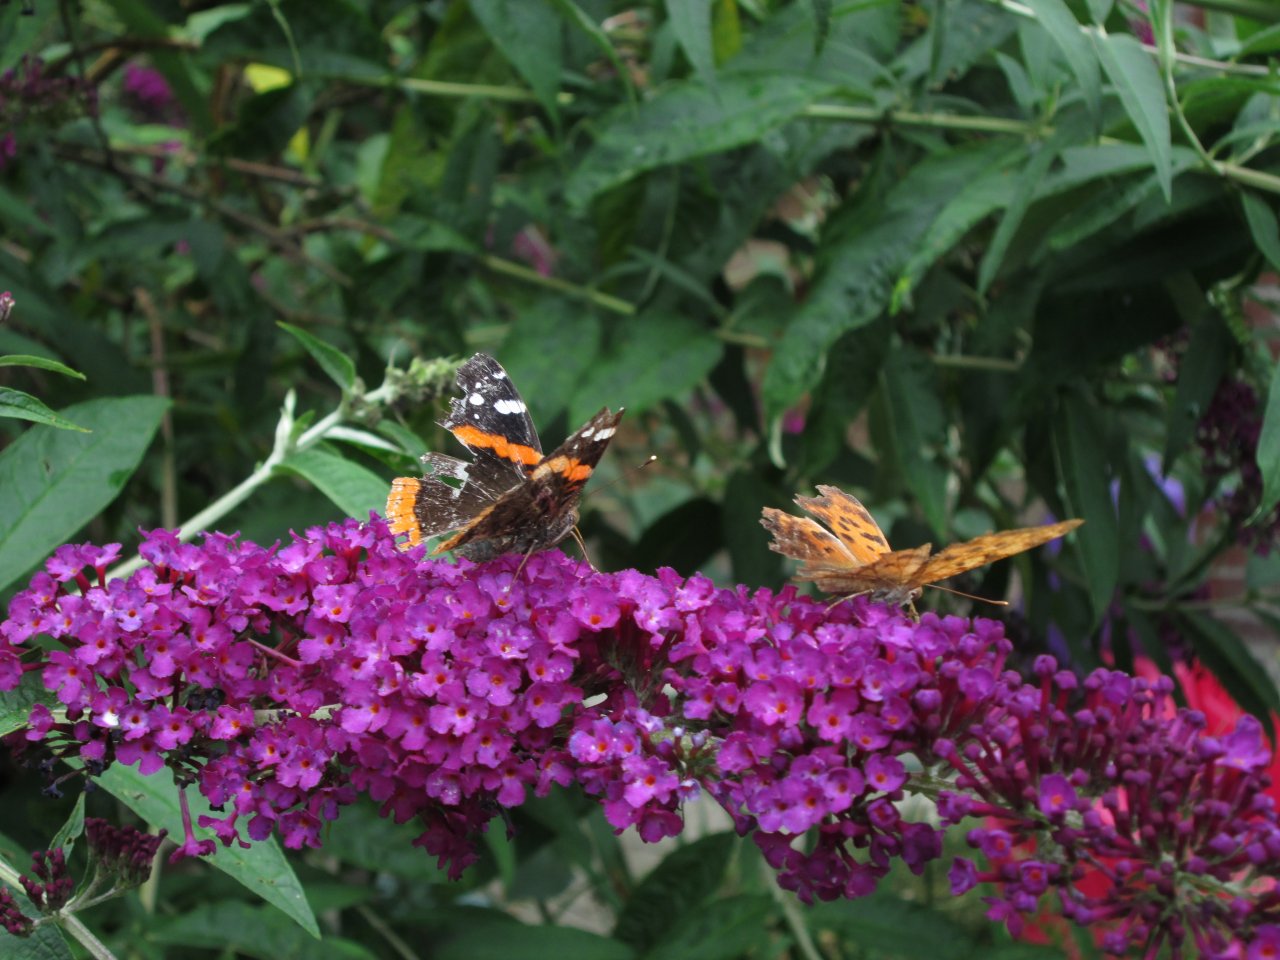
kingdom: Animalia
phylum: Arthropoda
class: Insecta
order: Lepidoptera
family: Nymphalidae
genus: Vanessa
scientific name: Vanessa atalanta
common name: Red Admiral
